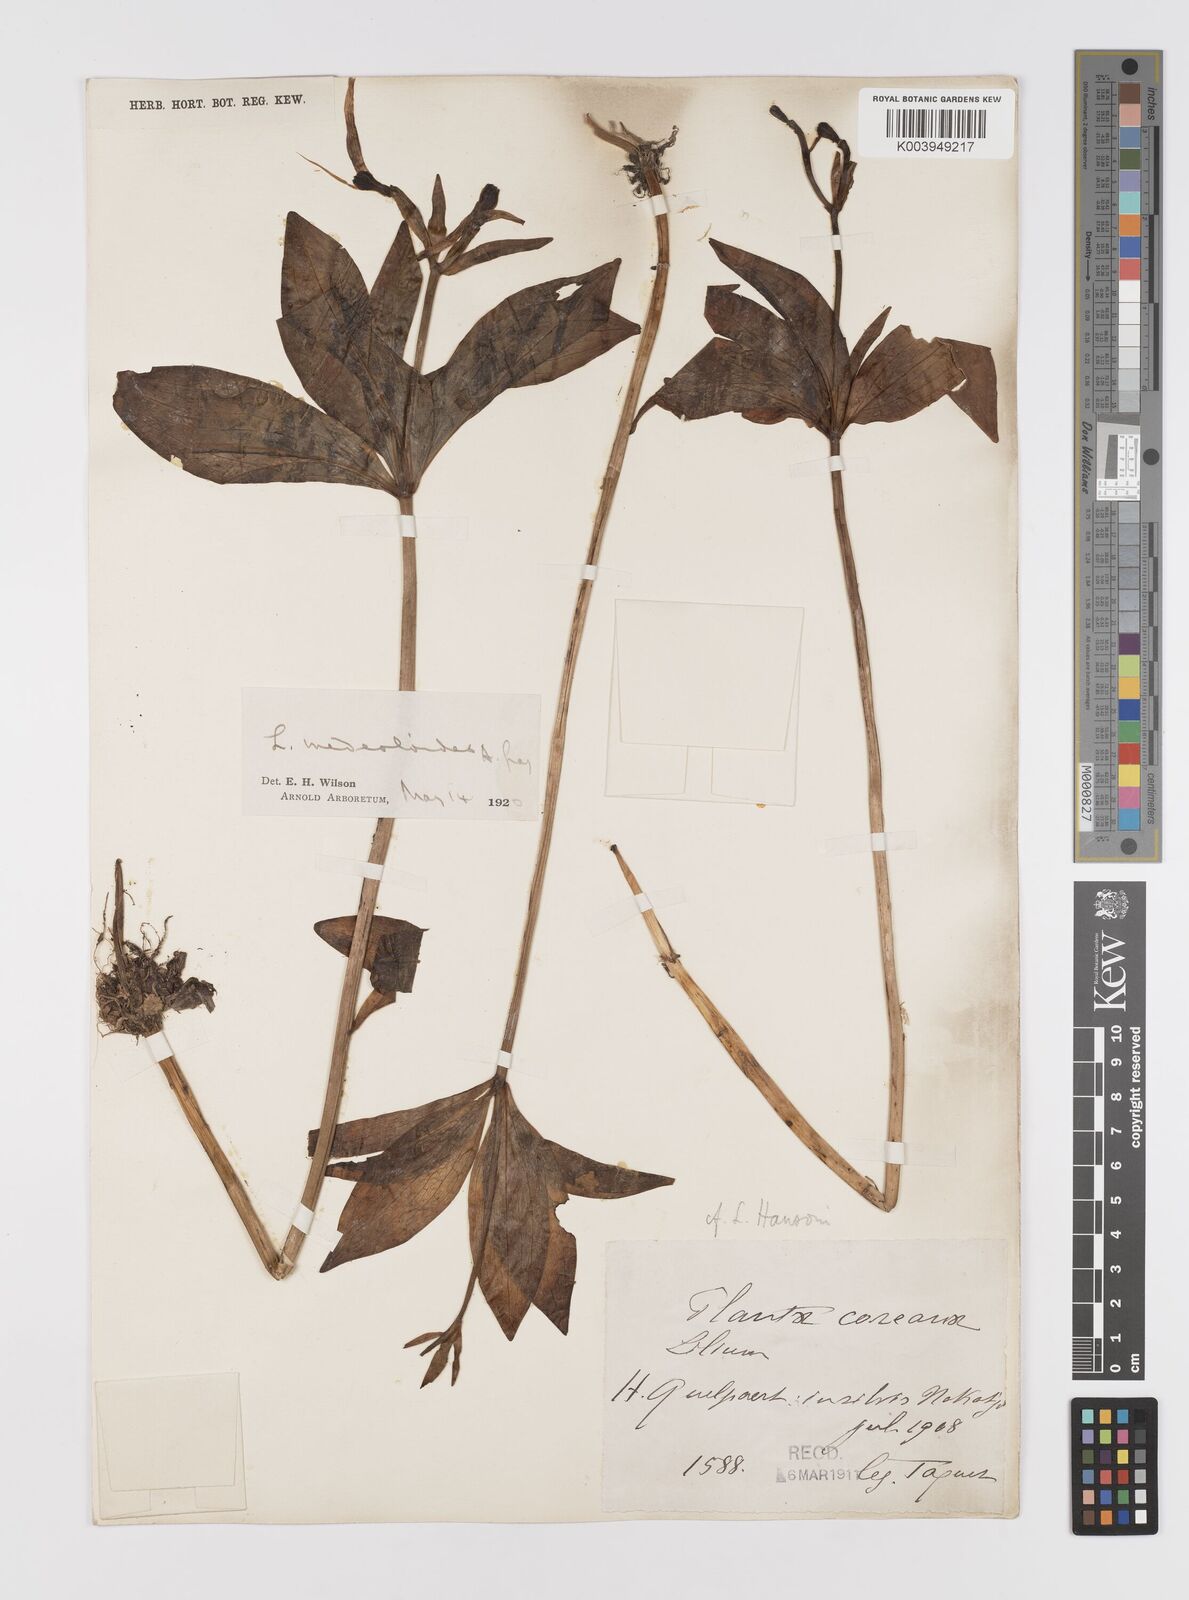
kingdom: Plantae
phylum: Tracheophyta
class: Liliopsida
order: Liliales
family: Liliaceae
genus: Lilium
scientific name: Lilium tsingtauense
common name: Korean wheel lily
